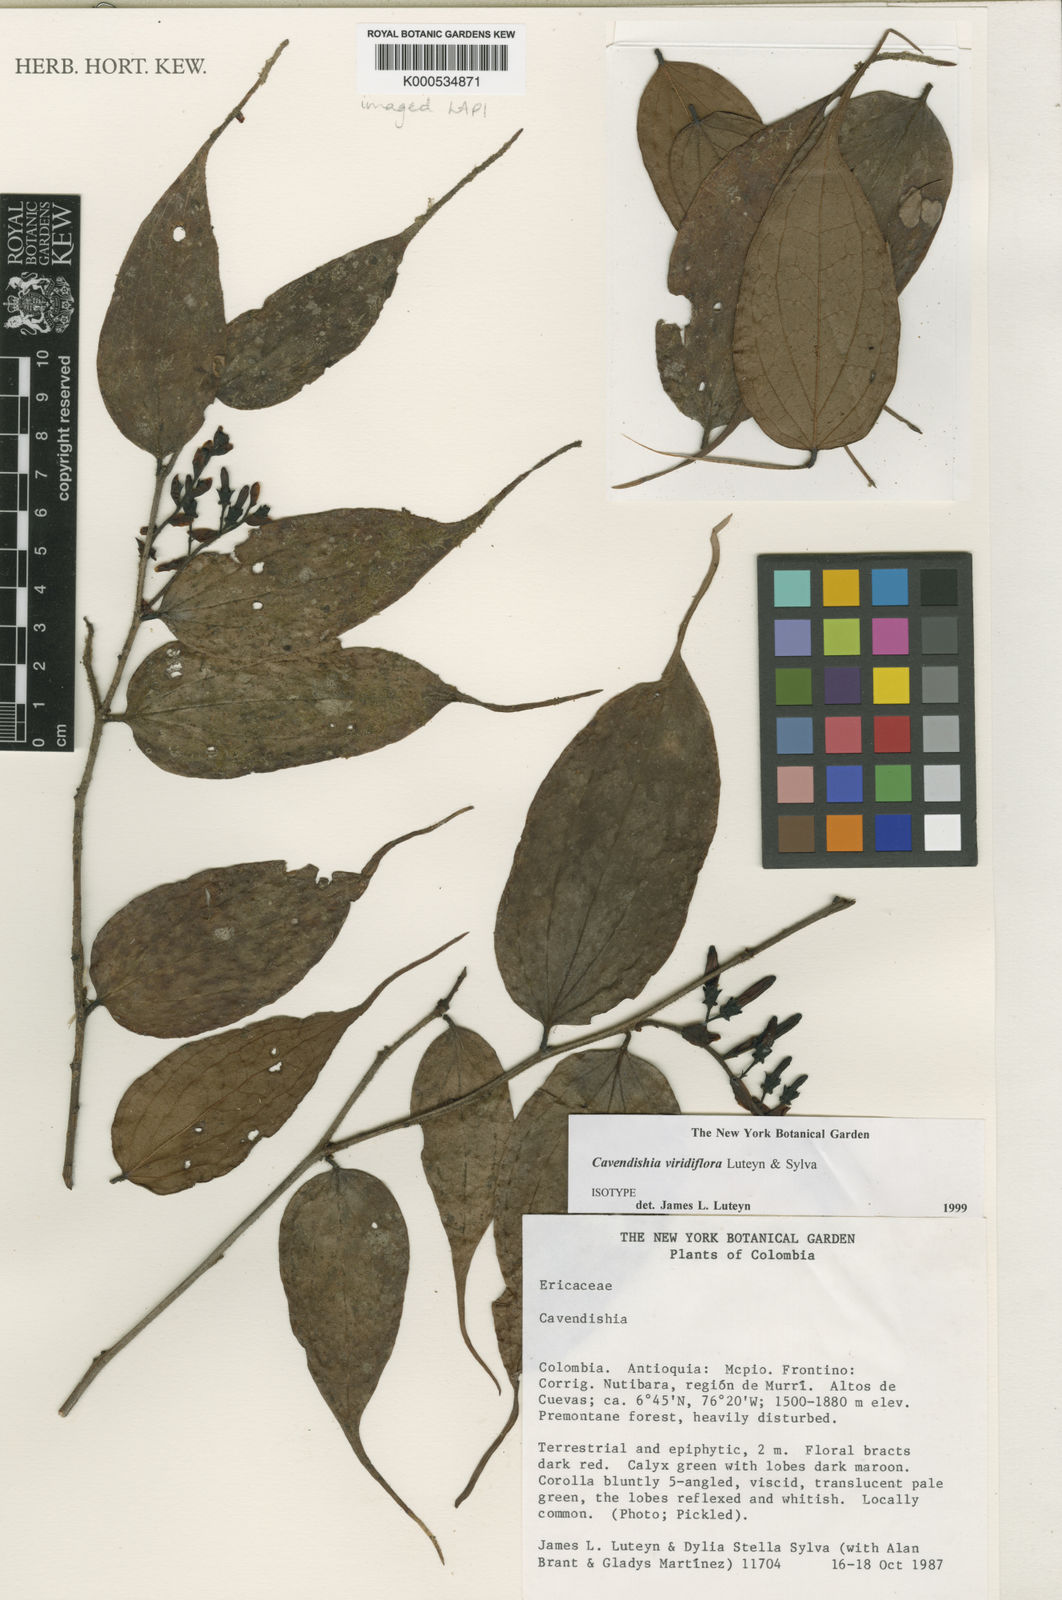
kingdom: Plantae
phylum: Tracheophyta
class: Magnoliopsida
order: Ericales
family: Ericaceae
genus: Cavendishia
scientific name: Cavendishia viridiflora
